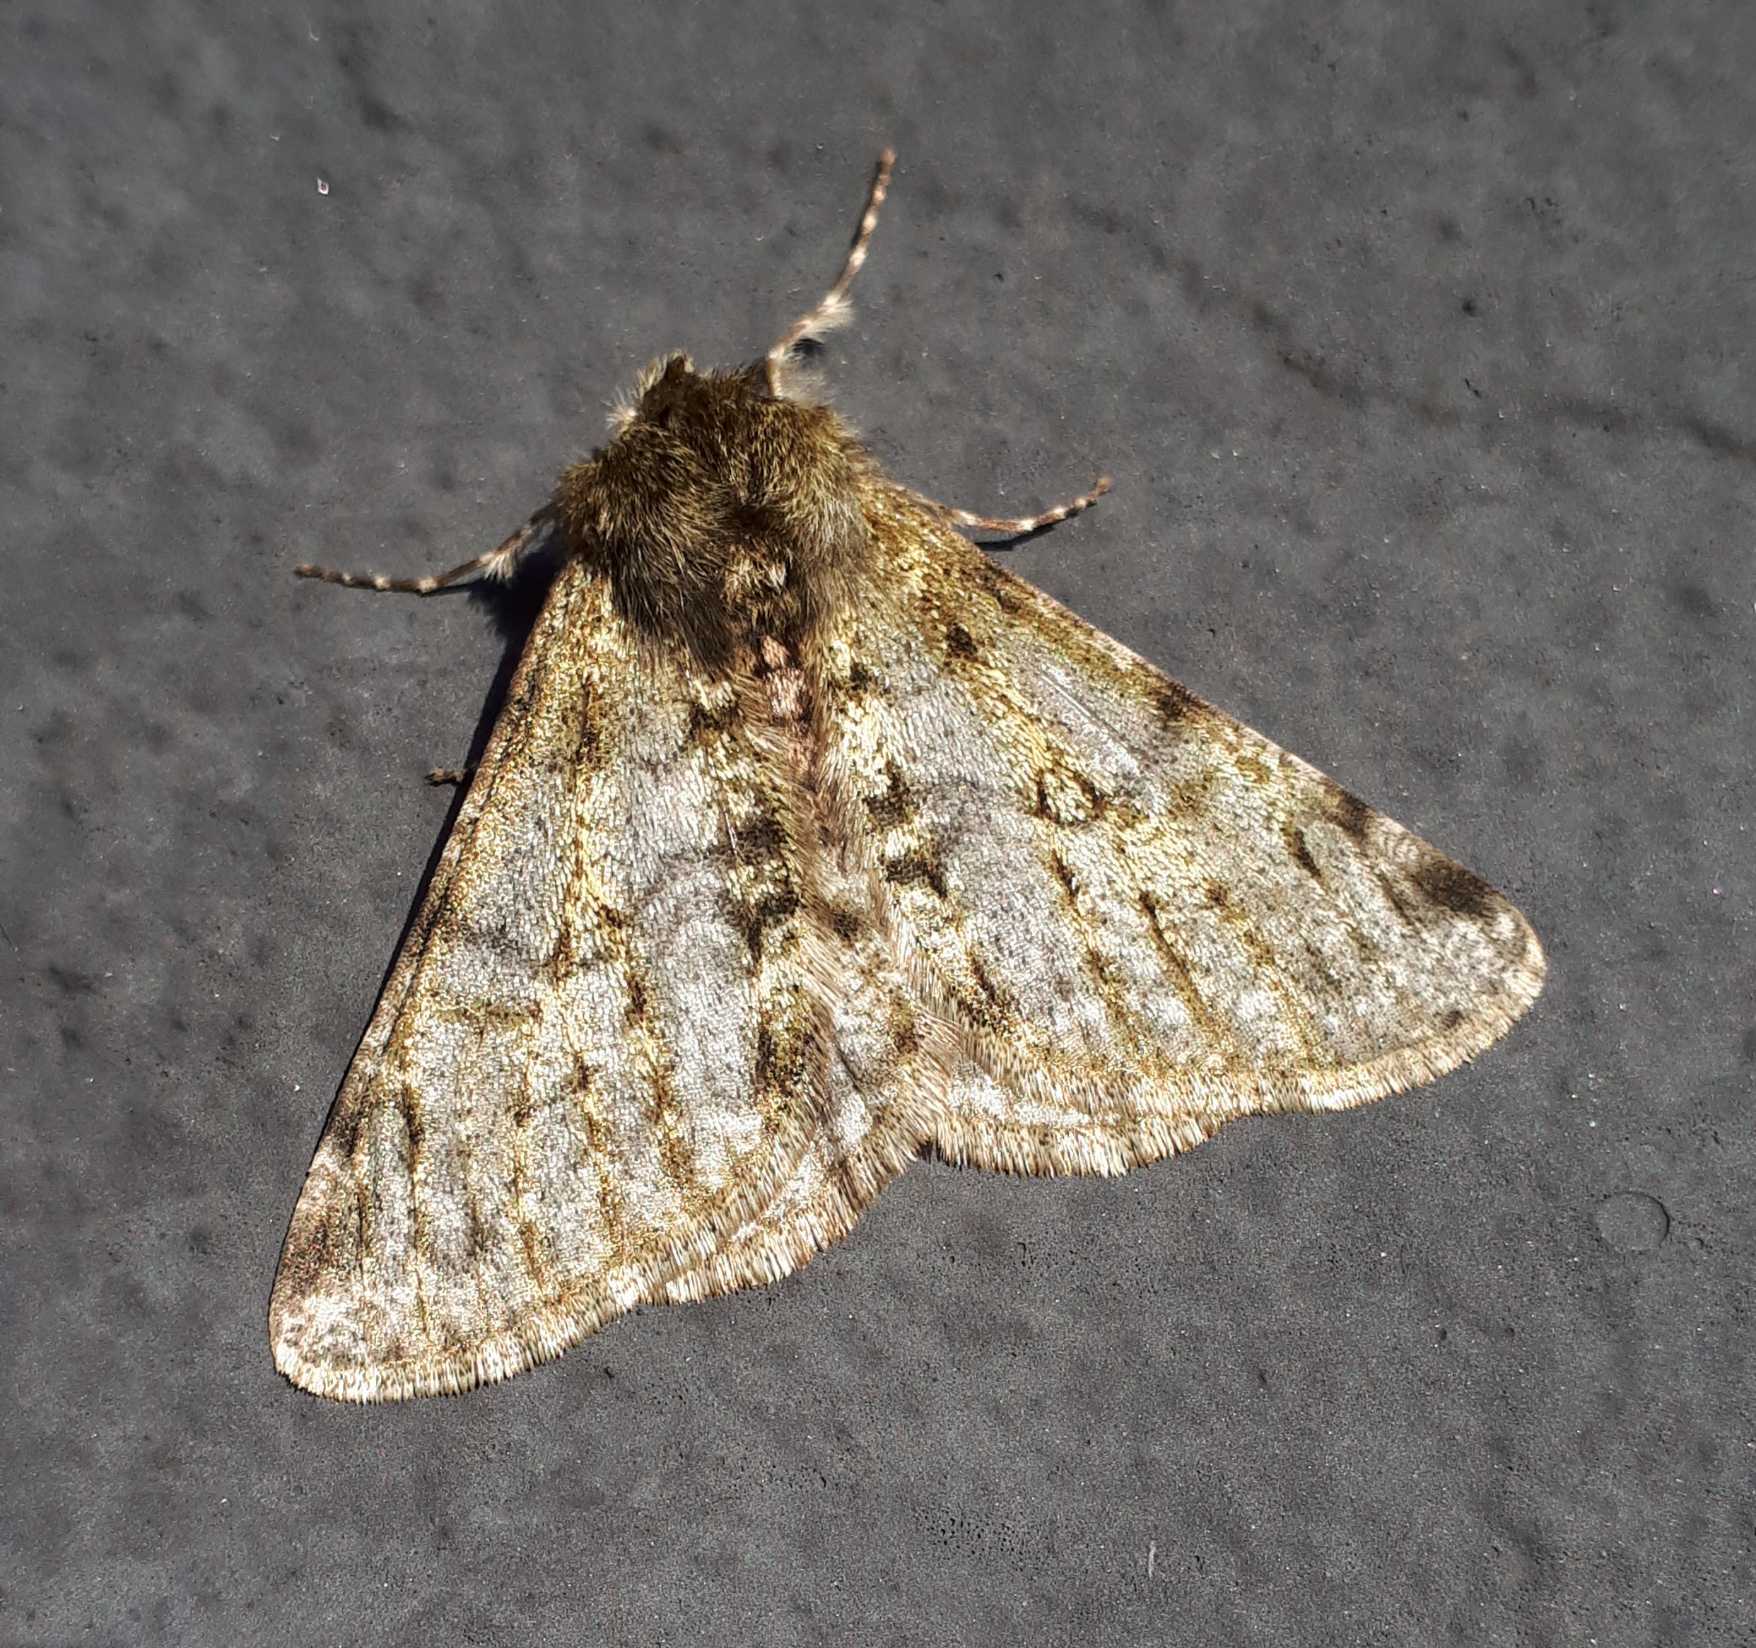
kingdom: Animalia
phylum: Arthropoda
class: Insecta
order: Lepidoptera
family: Geometridae
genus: Phigalia
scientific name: Phigalia pilosaria
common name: Fjer-måler
